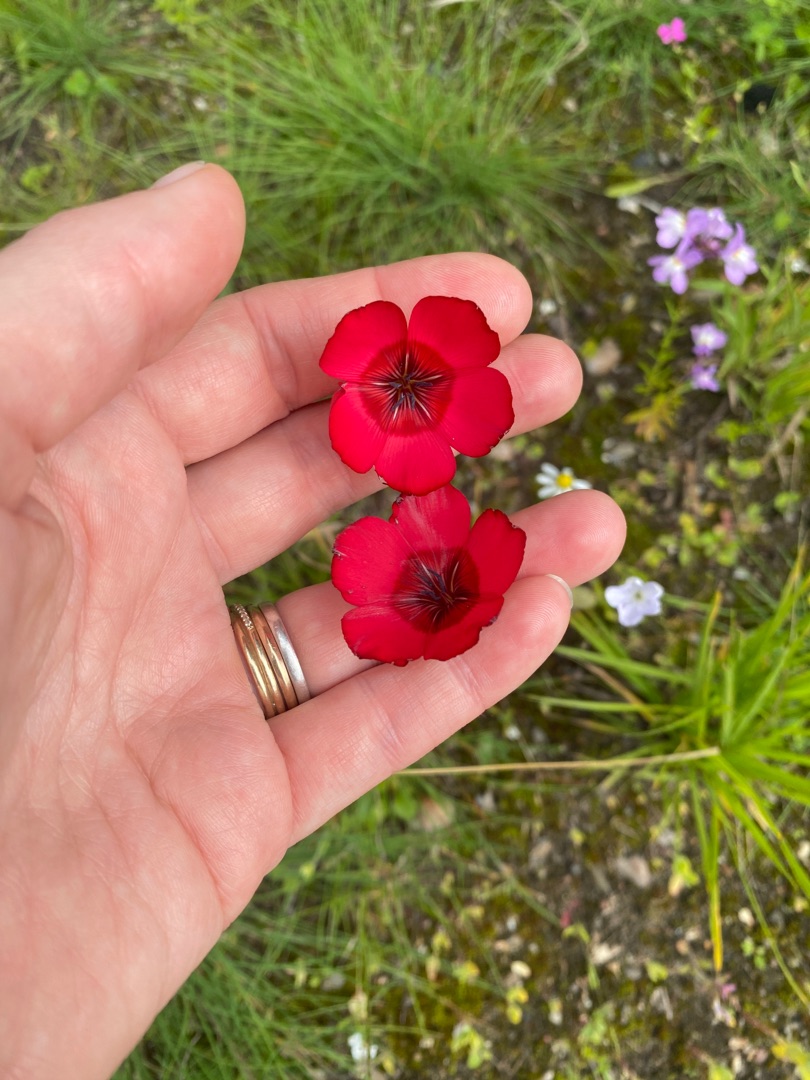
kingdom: Plantae
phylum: Tracheophyta
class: Magnoliopsida
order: Malpighiales
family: Linaceae
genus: Linum
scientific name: Linum grandiflorum
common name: Rød hør
